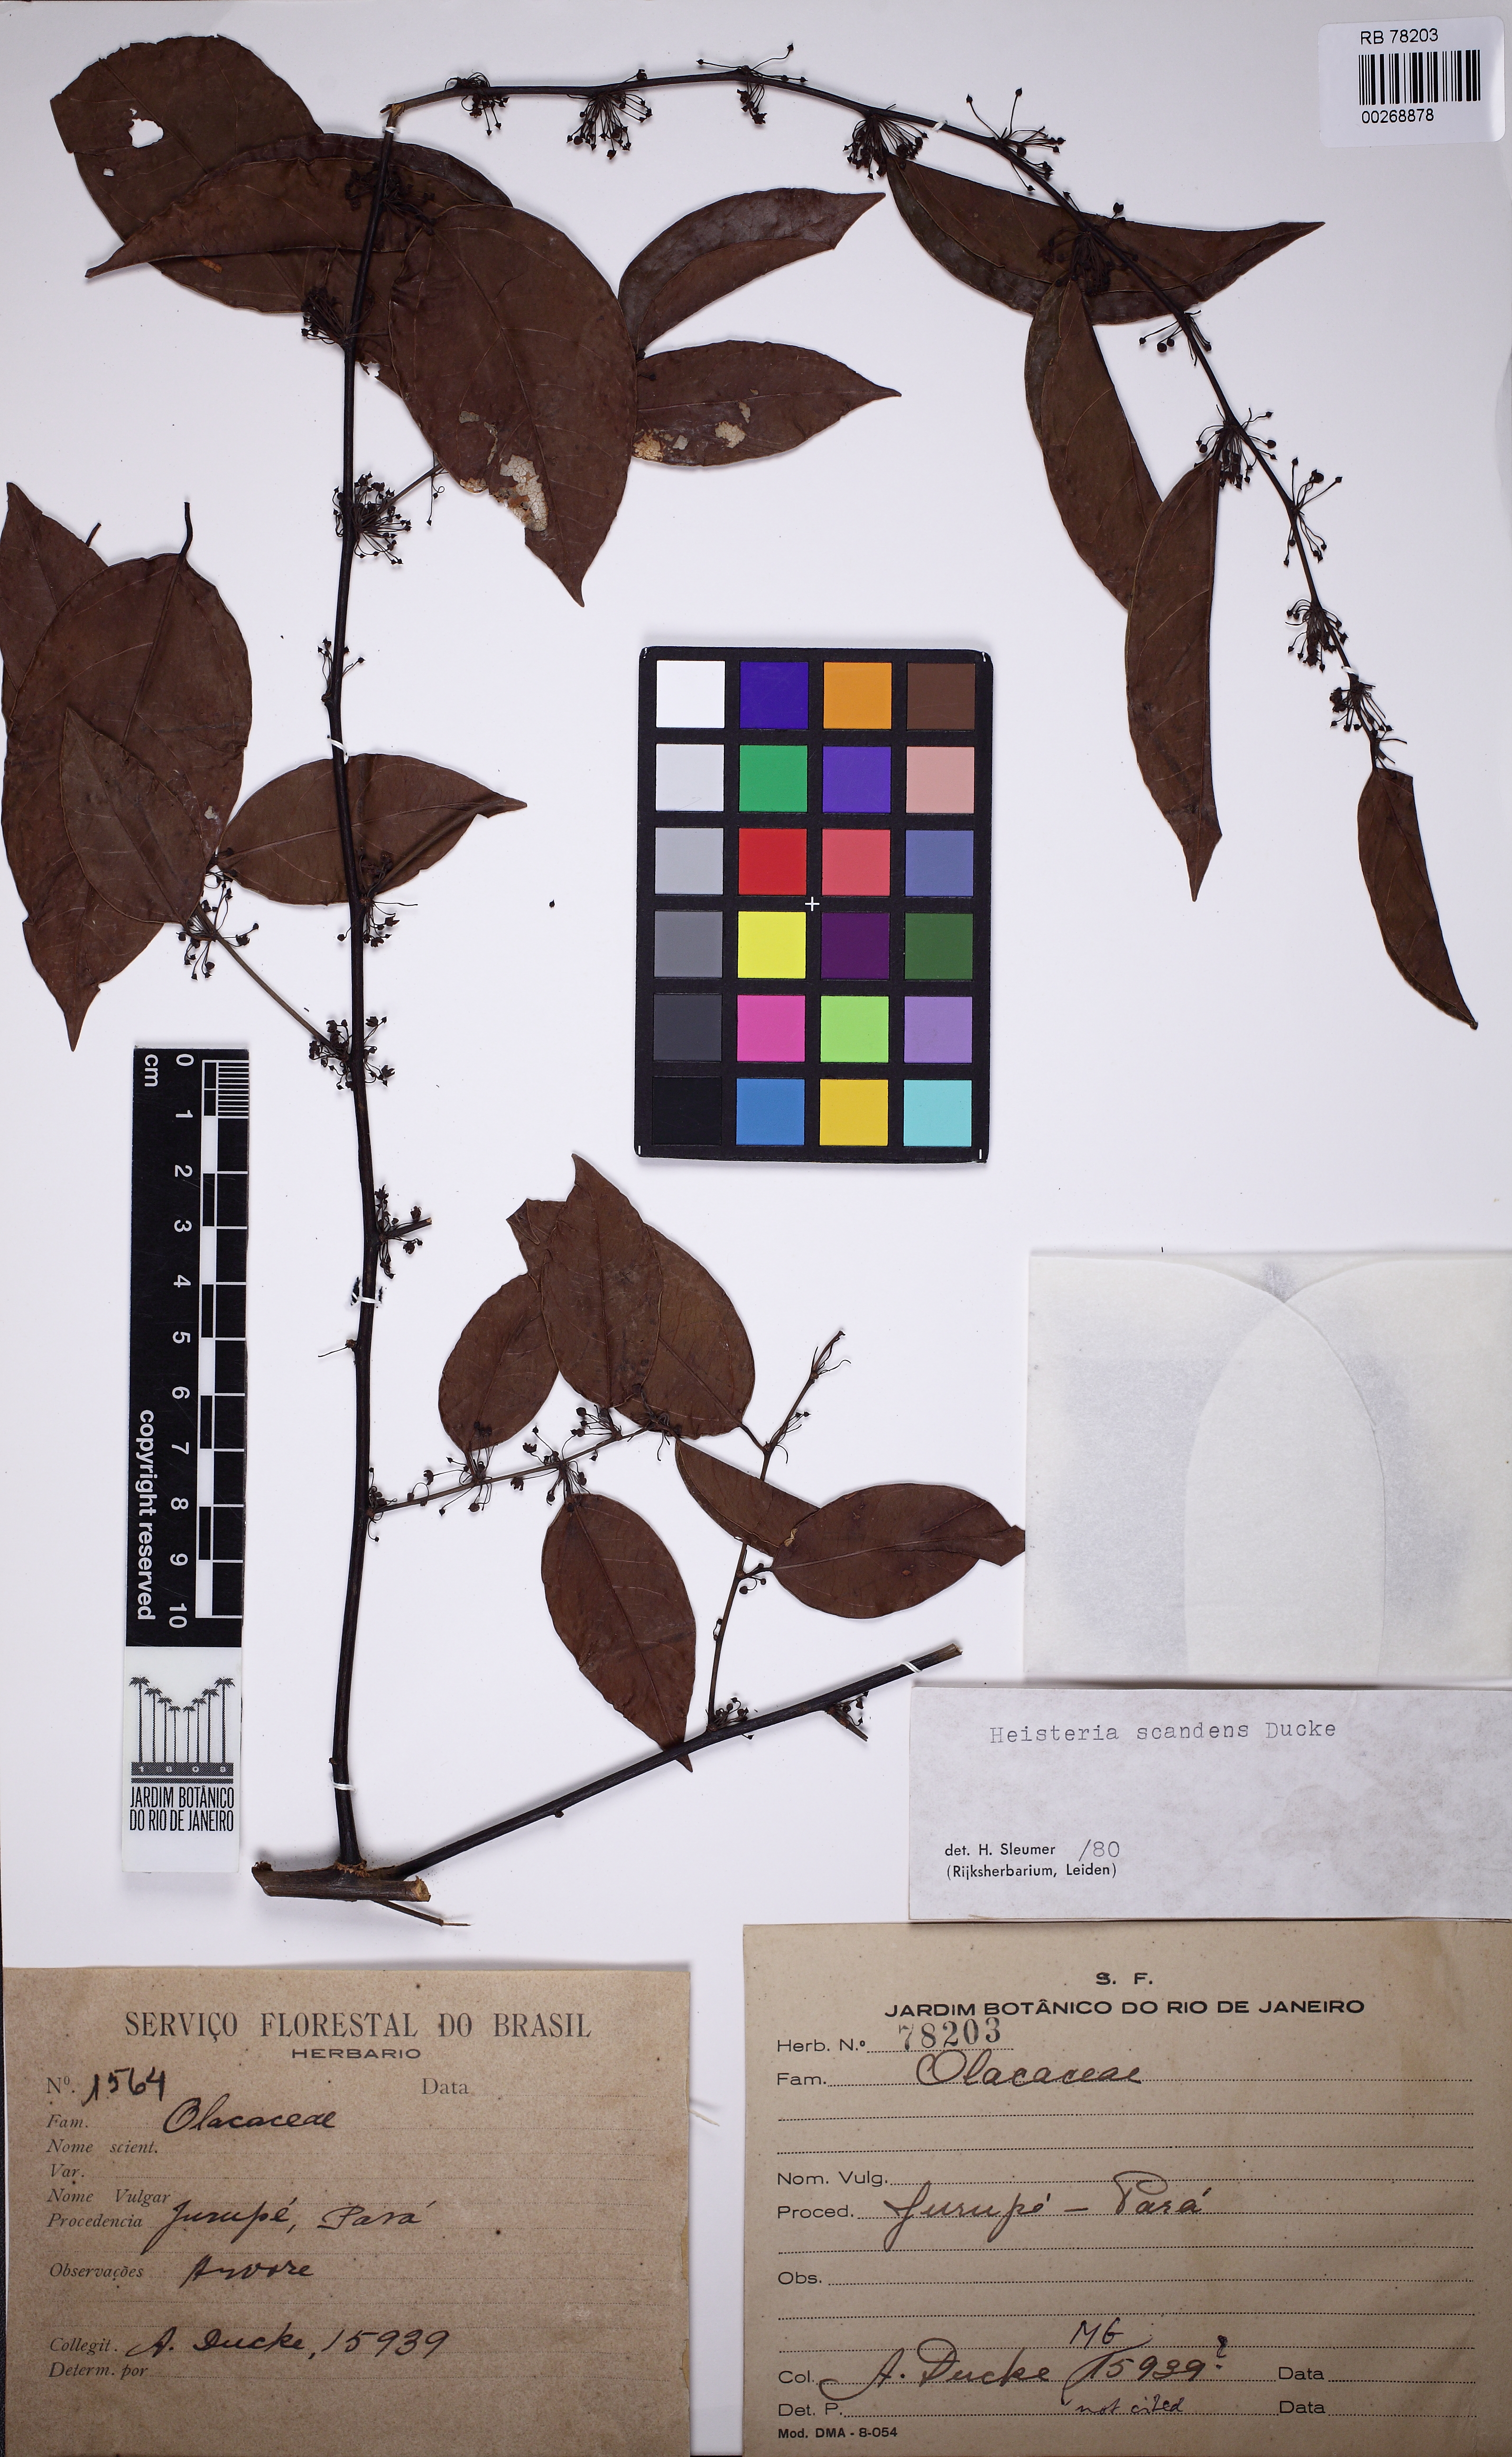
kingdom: Plantae
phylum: Tracheophyta
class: Magnoliopsida
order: Santalales
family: Erythropalaceae
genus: Heisteria
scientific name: Heisteria scandens
